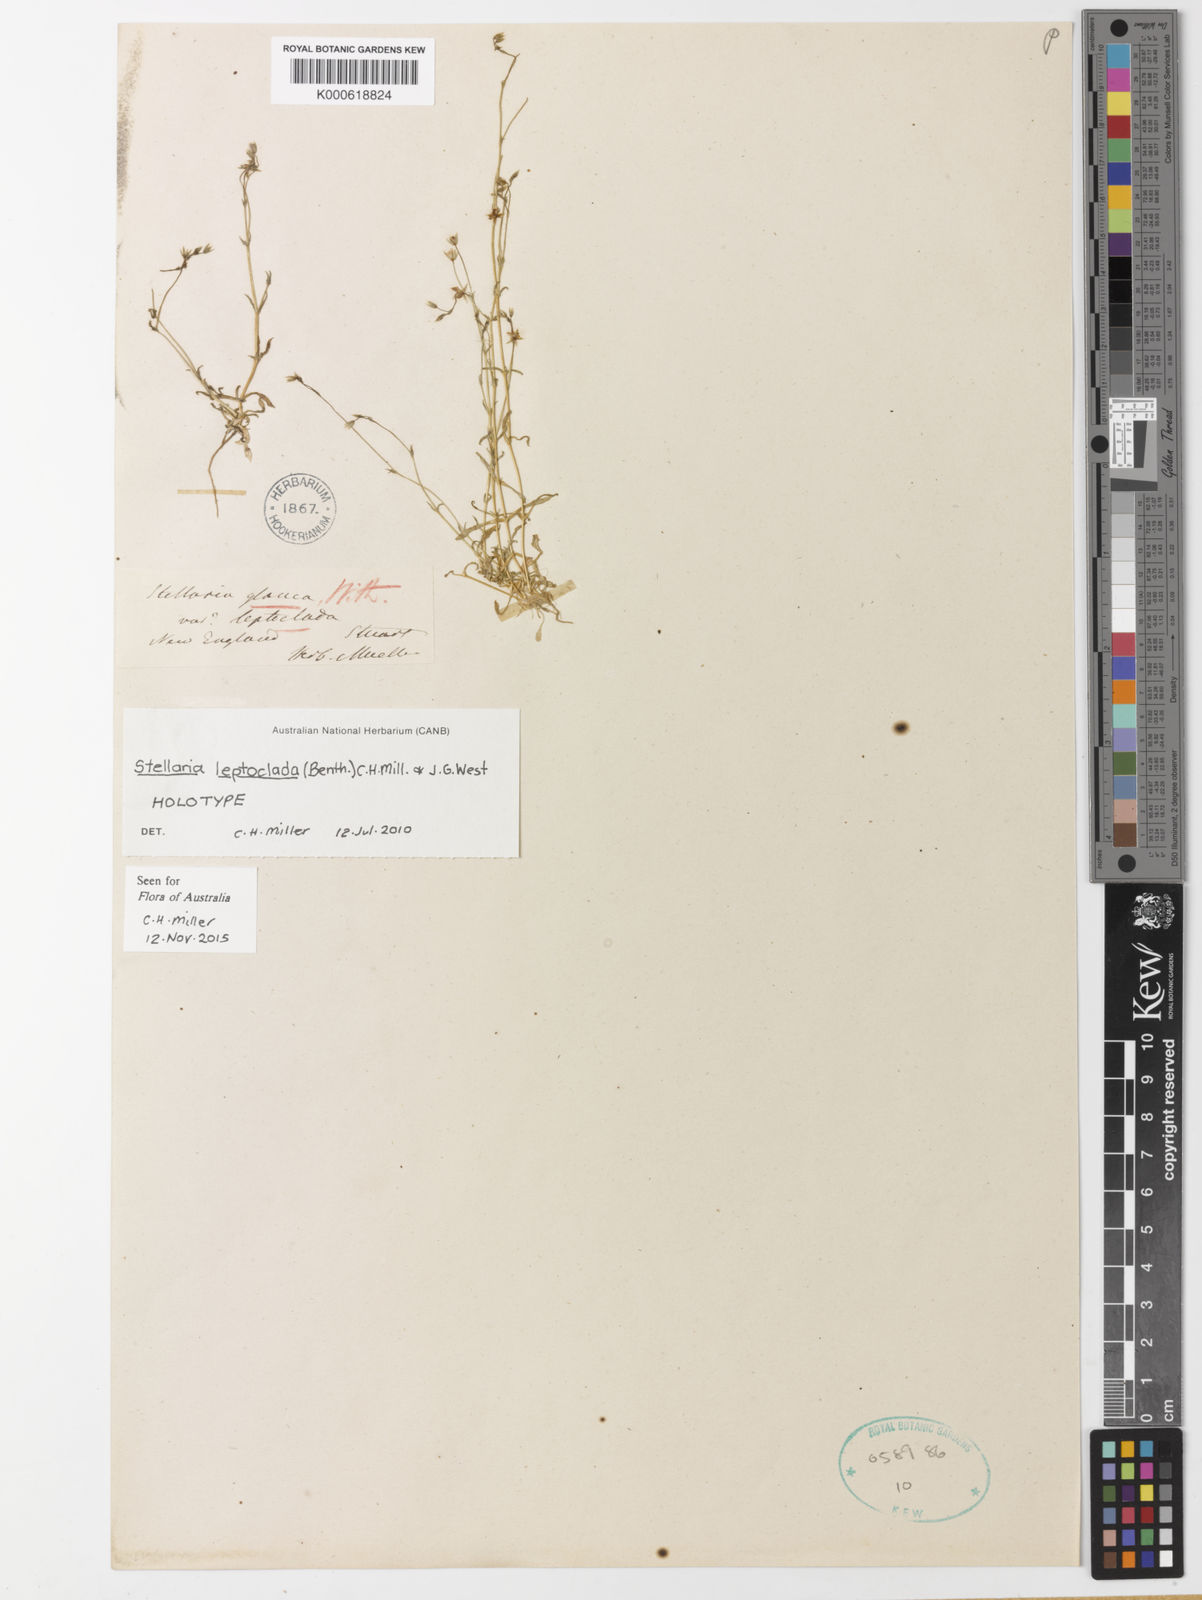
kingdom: Plantae
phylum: Tracheophyta
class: Magnoliopsida
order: Caryophyllales
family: Caryophyllaceae
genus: Stellaria
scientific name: Stellaria leptoclada
